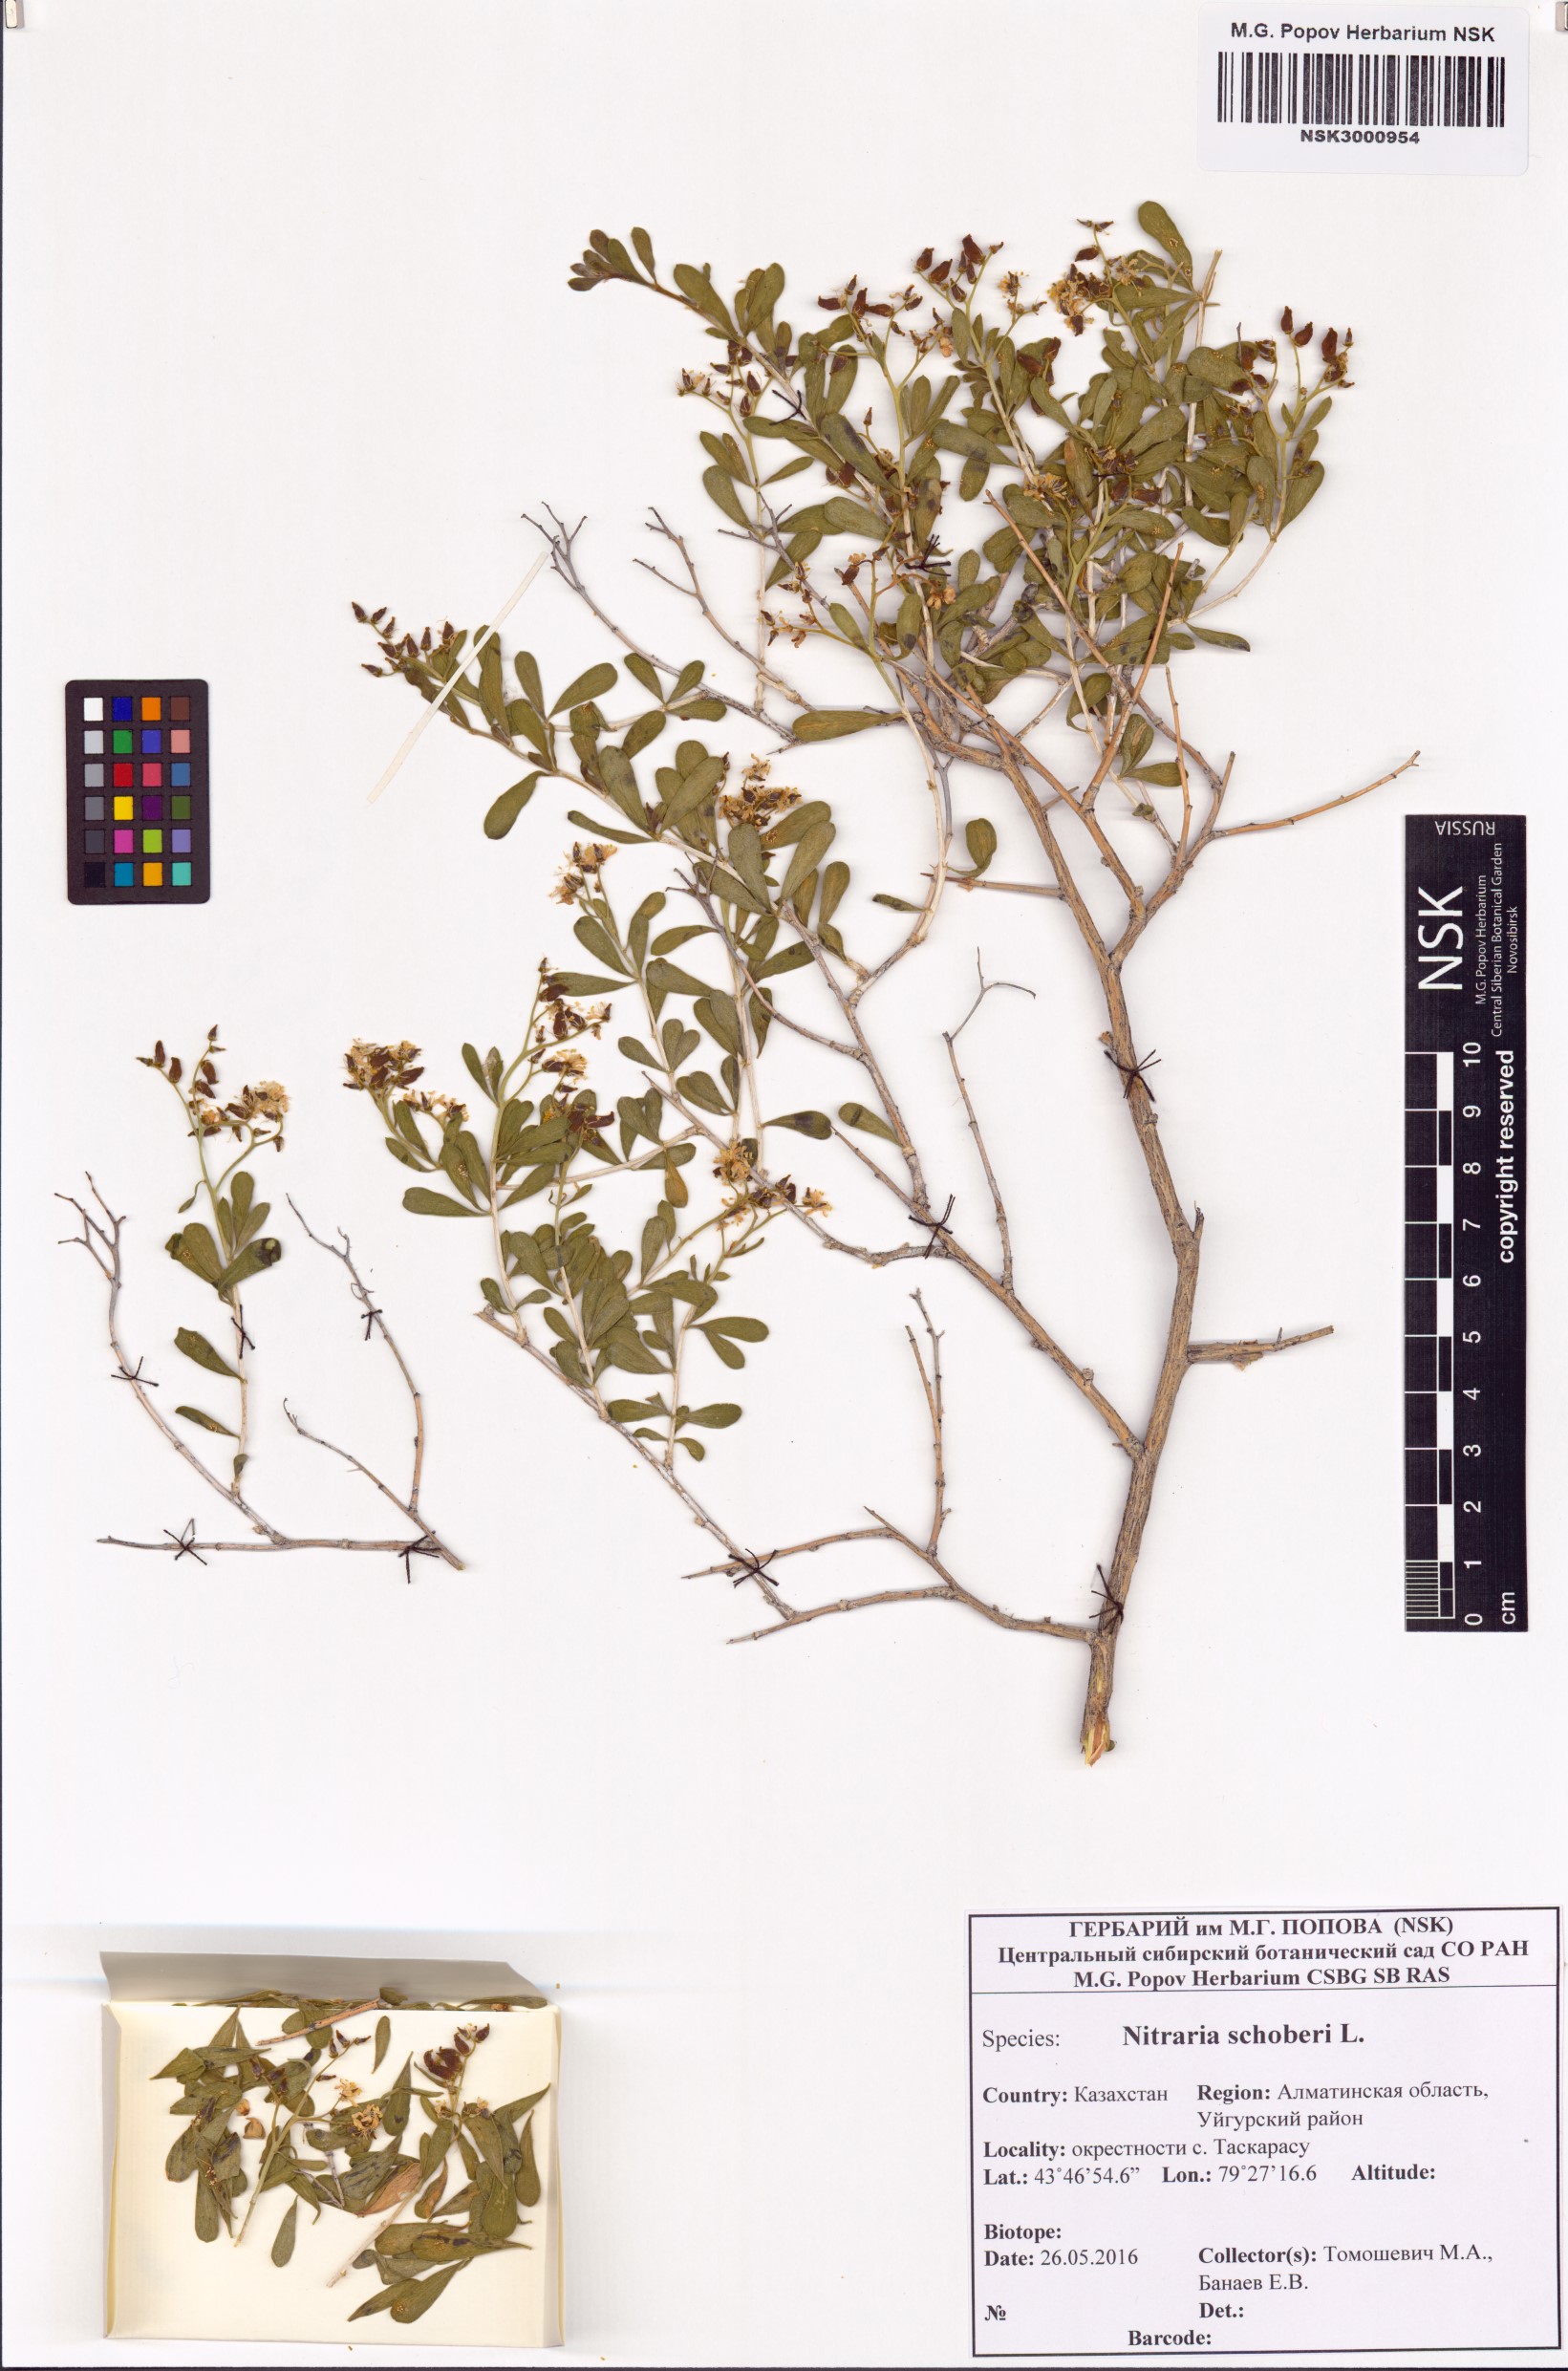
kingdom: Plantae
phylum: Tracheophyta
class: Magnoliopsida
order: Sapindales
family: Nitrariaceae
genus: Nitraria
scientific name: Nitraria schoberi
